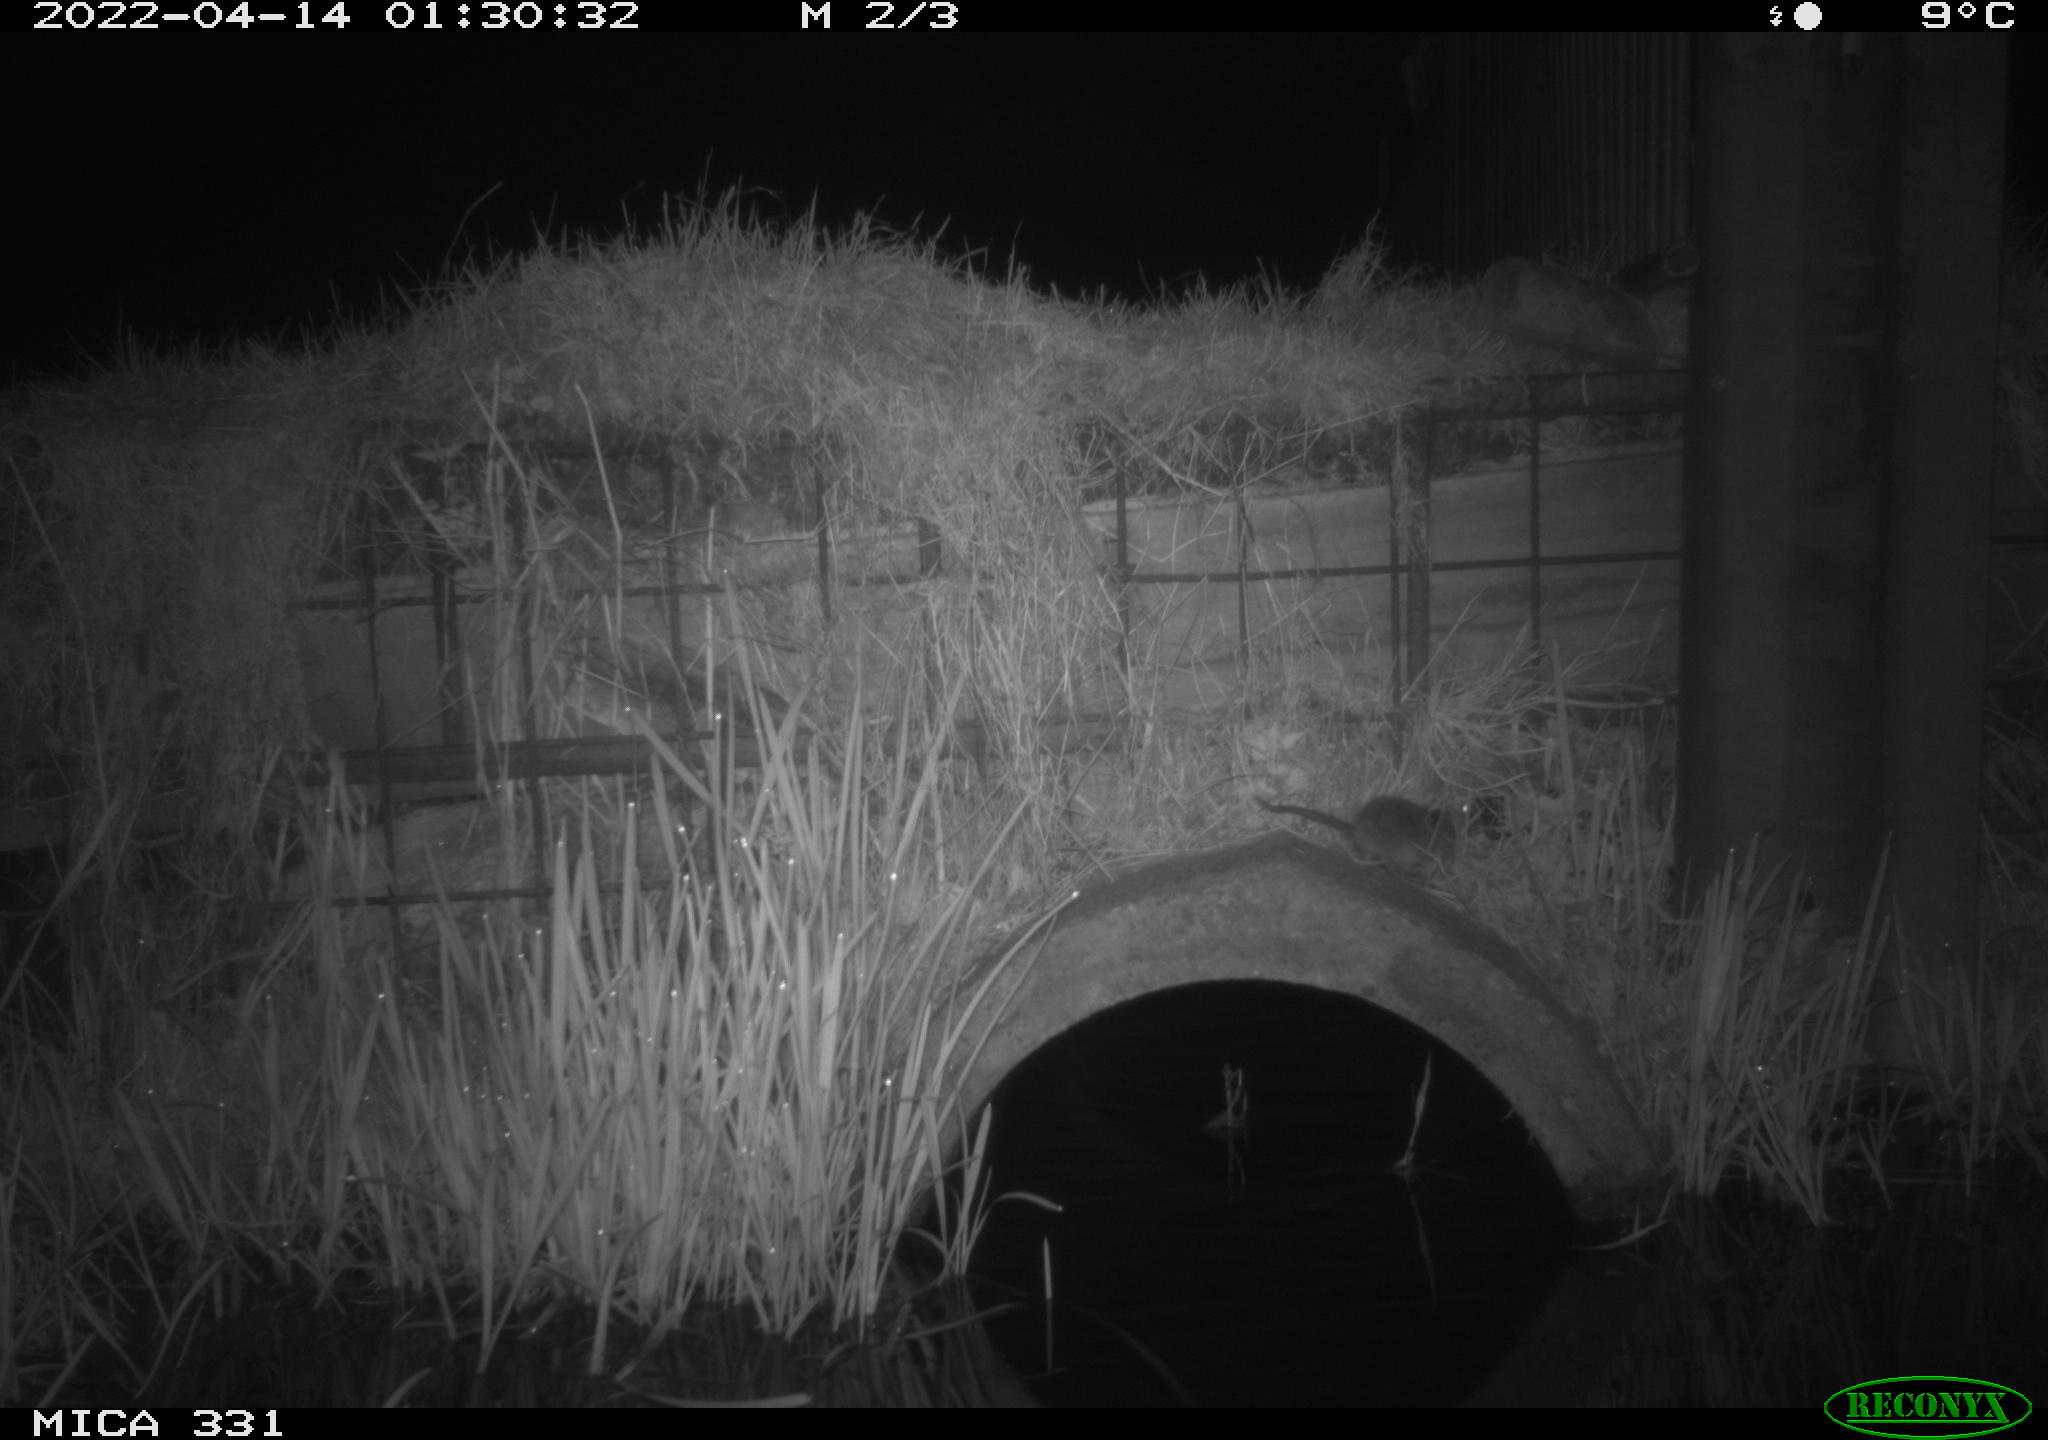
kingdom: Animalia
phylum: Chordata
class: Mammalia
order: Rodentia
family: Muridae
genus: Rattus
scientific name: Rattus norvegicus
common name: Brown rat
